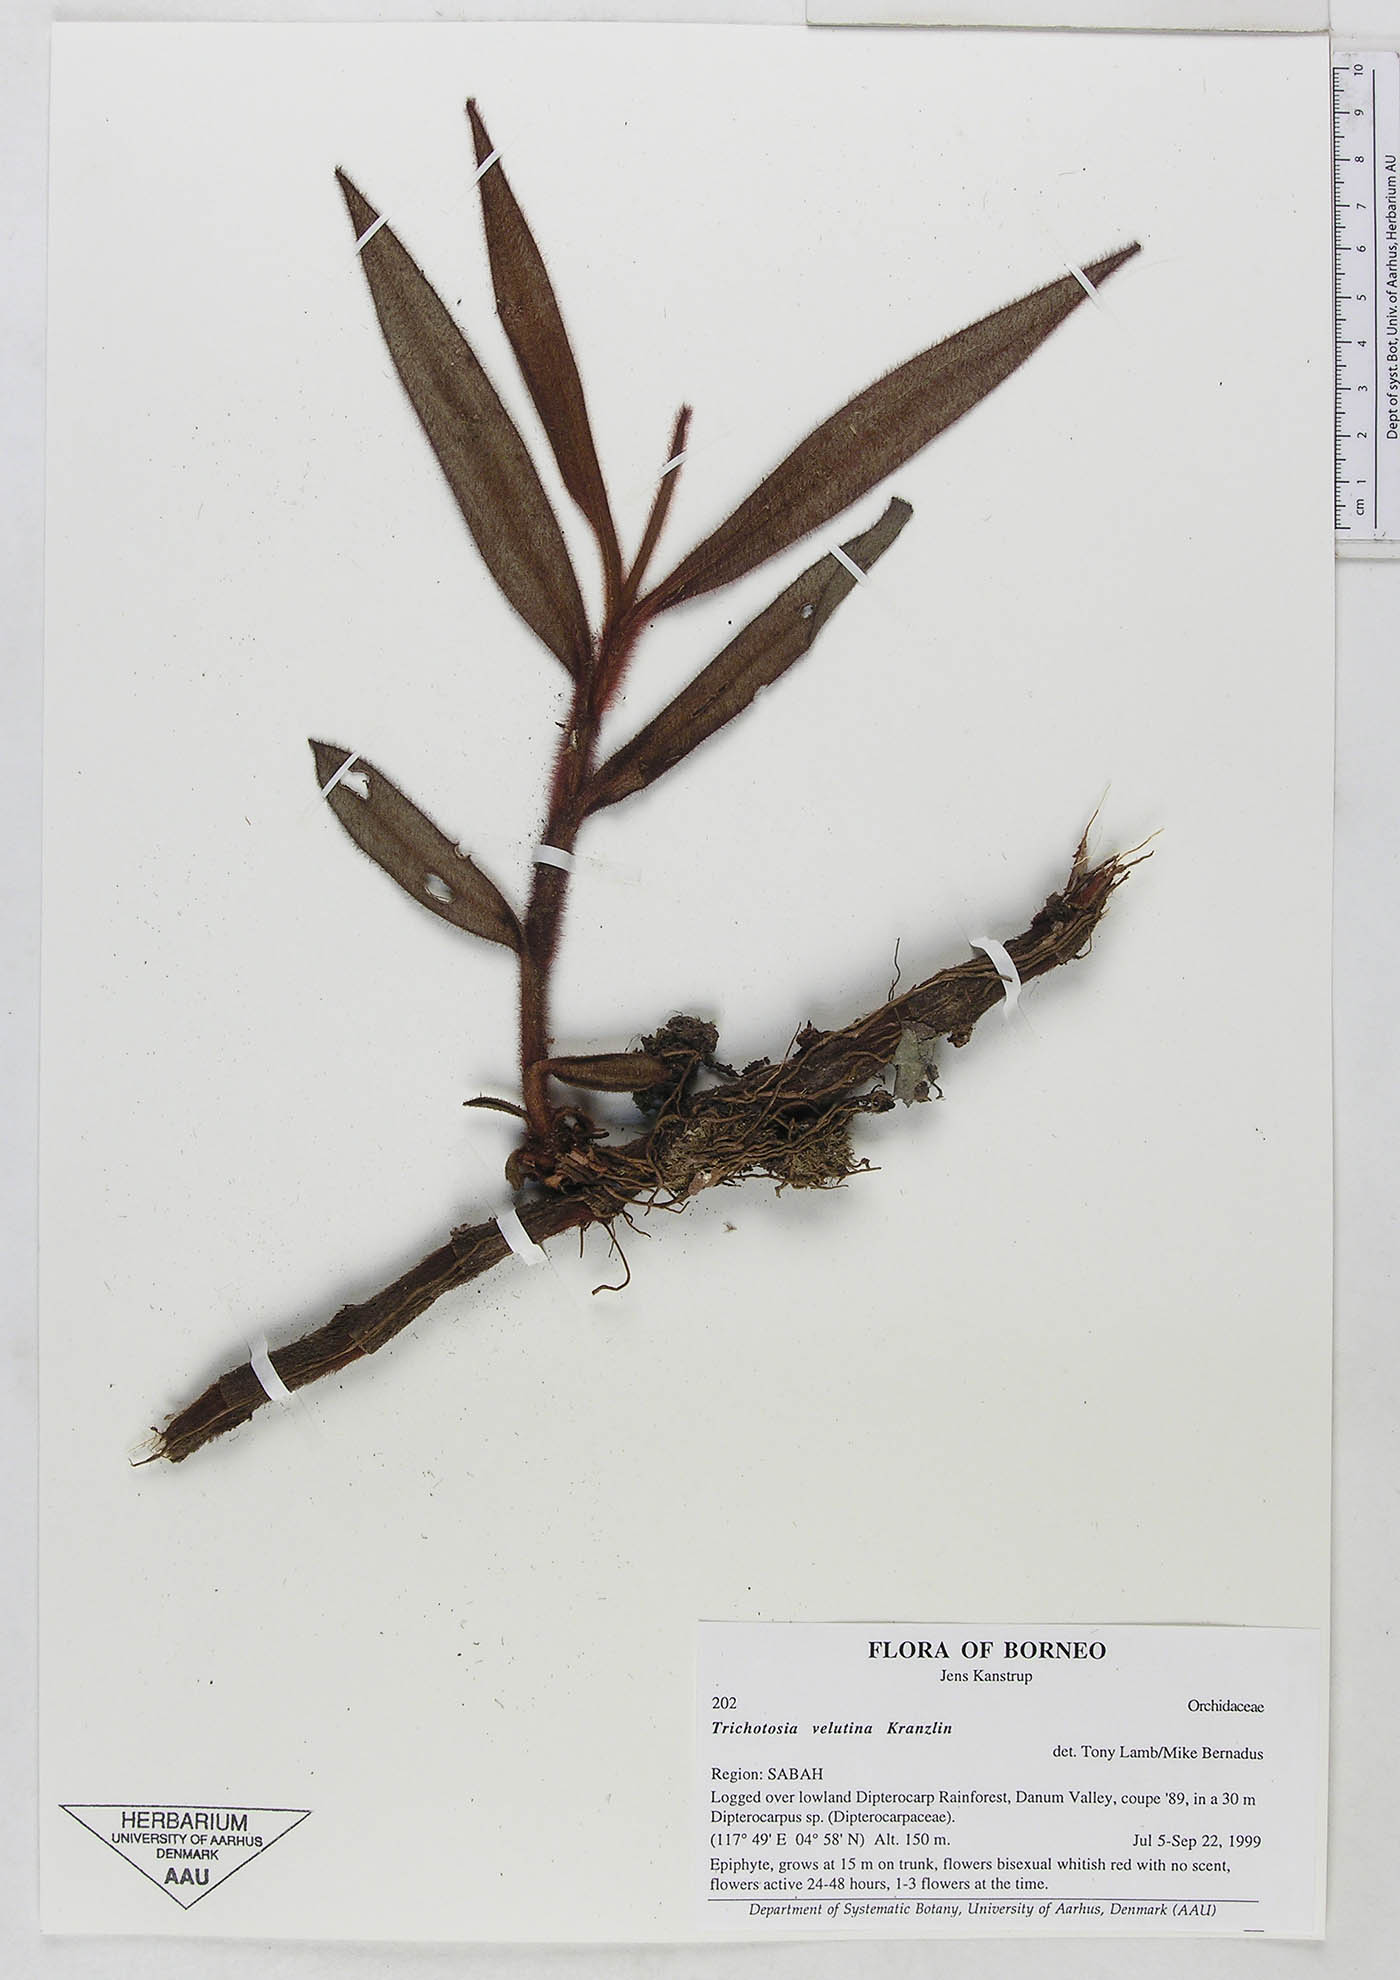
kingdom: Plantae
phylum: Tracheophyta
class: Liliopsida
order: Asparagales
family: Orchidaceae
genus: Trichotosia
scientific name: Trichotosia velutina
